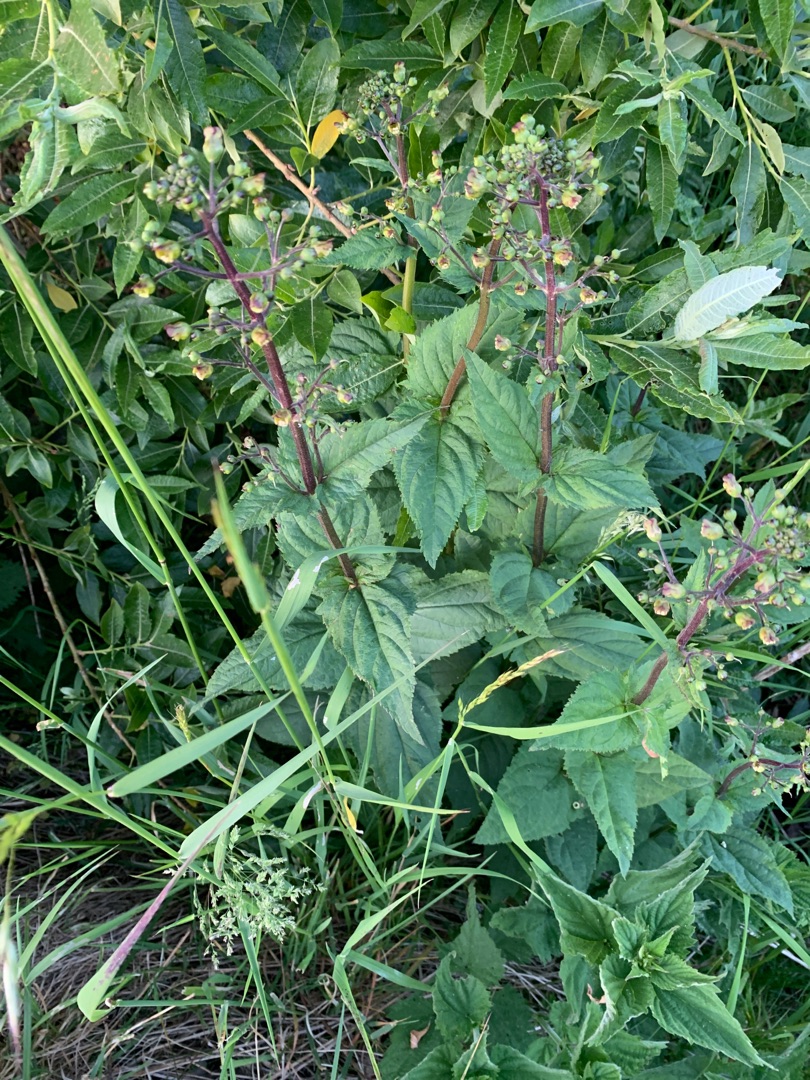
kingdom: Plantae
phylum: Tracheophyta
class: Magnoliopsida
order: Lamiales
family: Scrophulariaceae
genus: Scrophularia
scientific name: Scrophularia nodosa
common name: Knoldet brunrod
